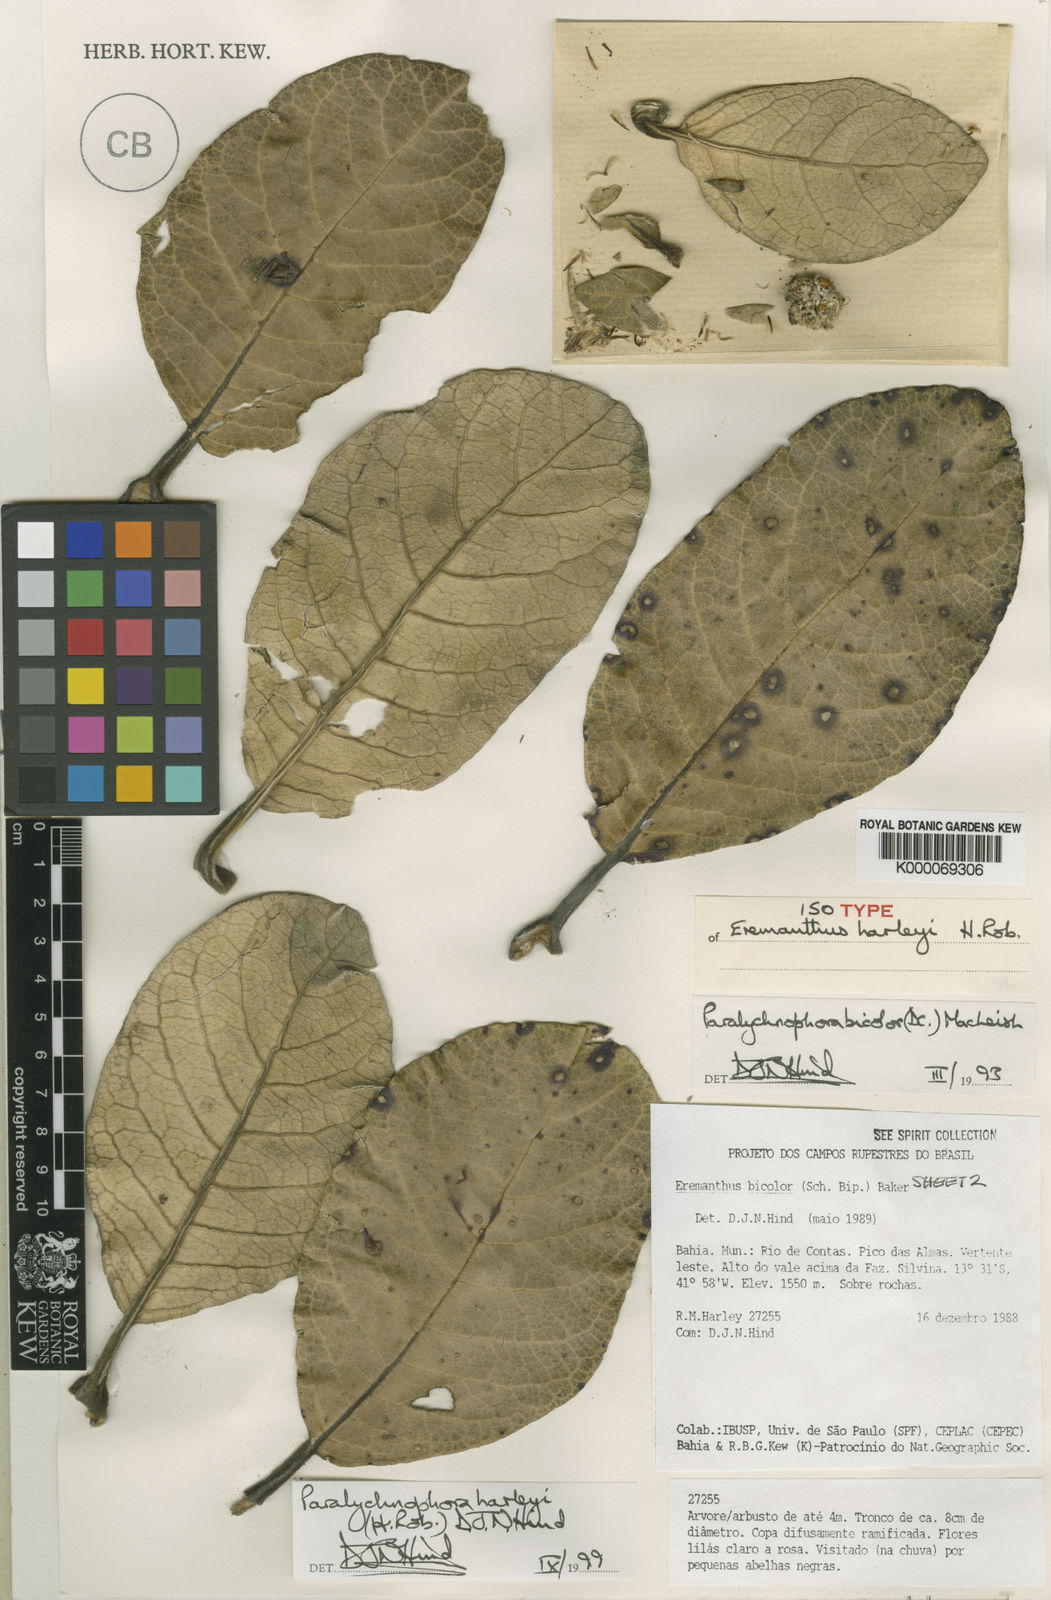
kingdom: Plantae
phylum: Tracheophyta
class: Magnoliopsida
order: Asterales
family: Asteraceae
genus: Paralychnophora
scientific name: Paralychnophora harleyi
